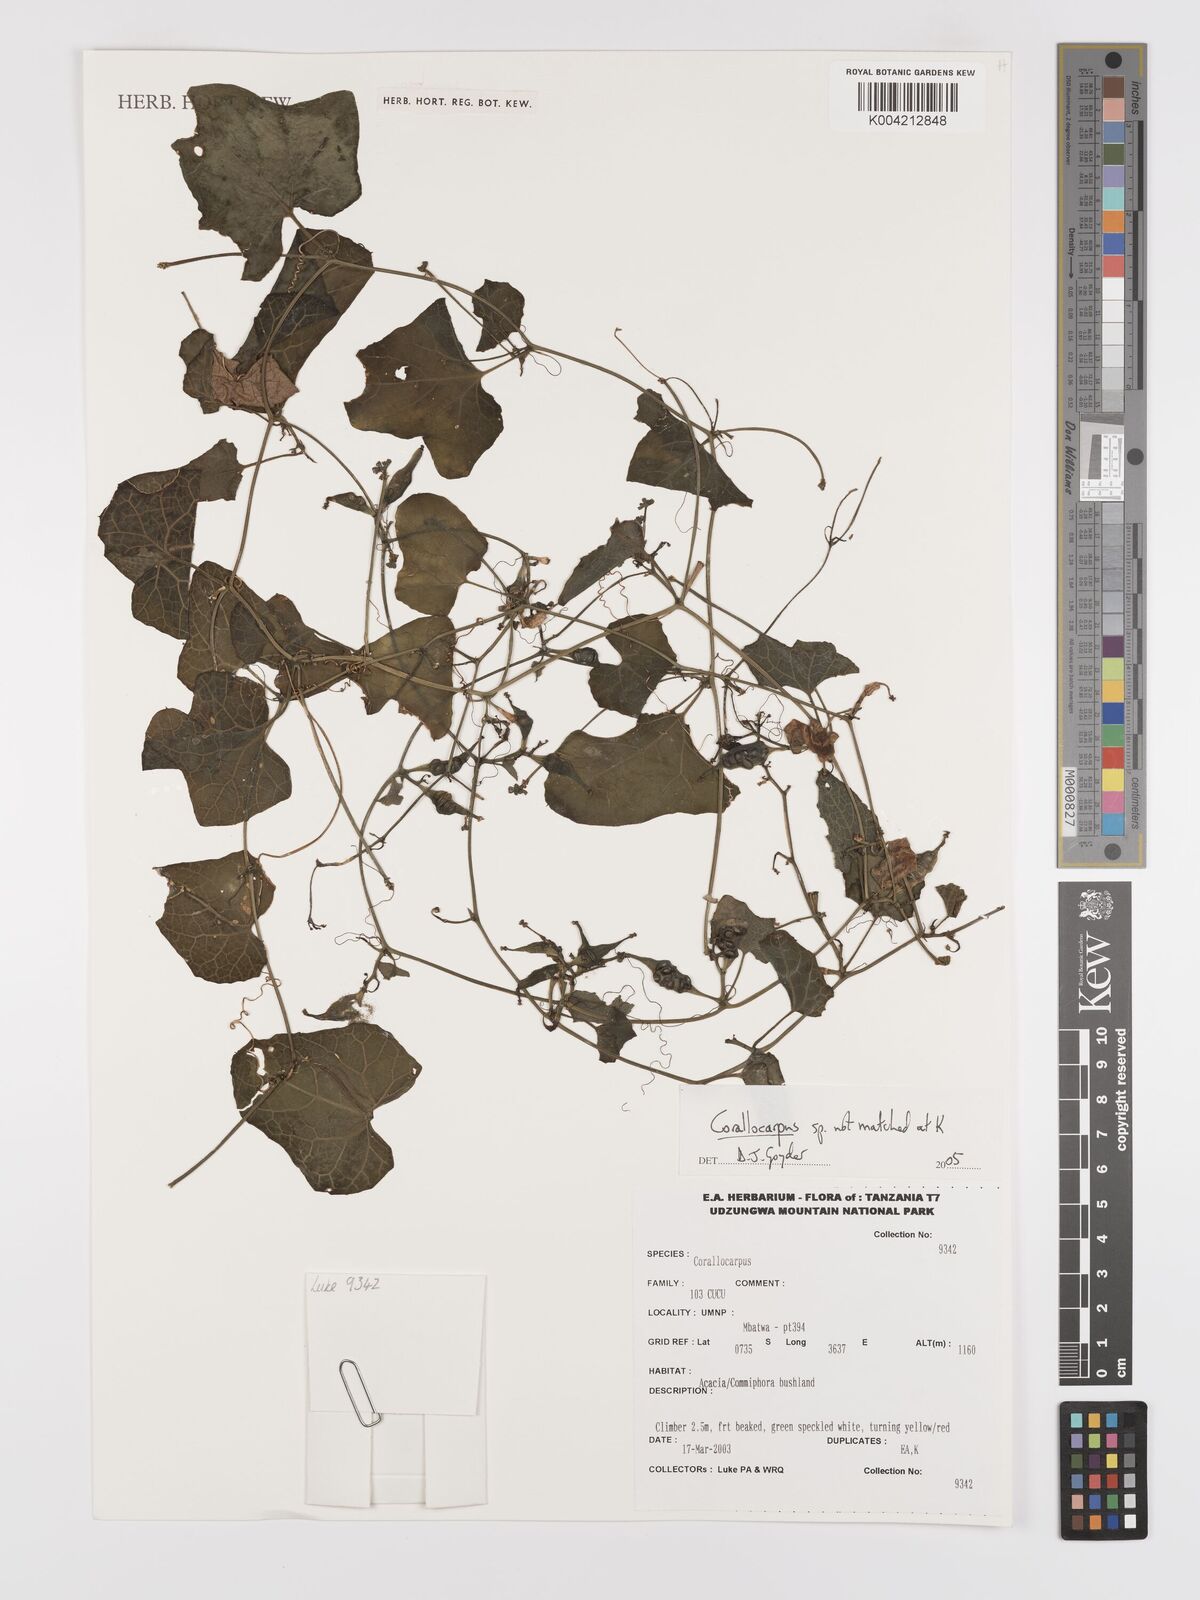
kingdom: Plantae
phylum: Tracheophyta
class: Magnoliopsida
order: Cucurbitales
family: Cucurbitaceae
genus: Corallocarpus
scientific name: Corallocarpus
